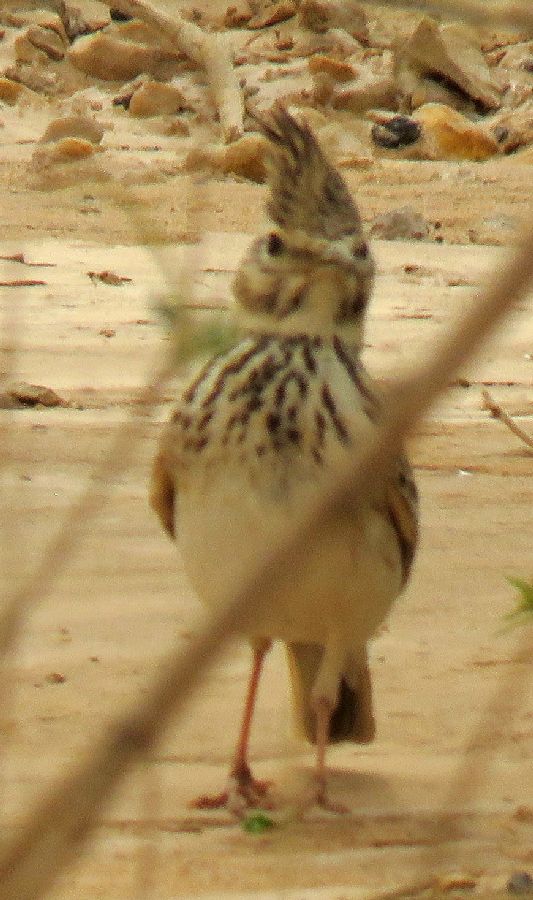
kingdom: Animalia
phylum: Chordata
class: Aves
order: Passeriformes
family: Alaudidae
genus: Galerida
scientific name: Galerida cristata
